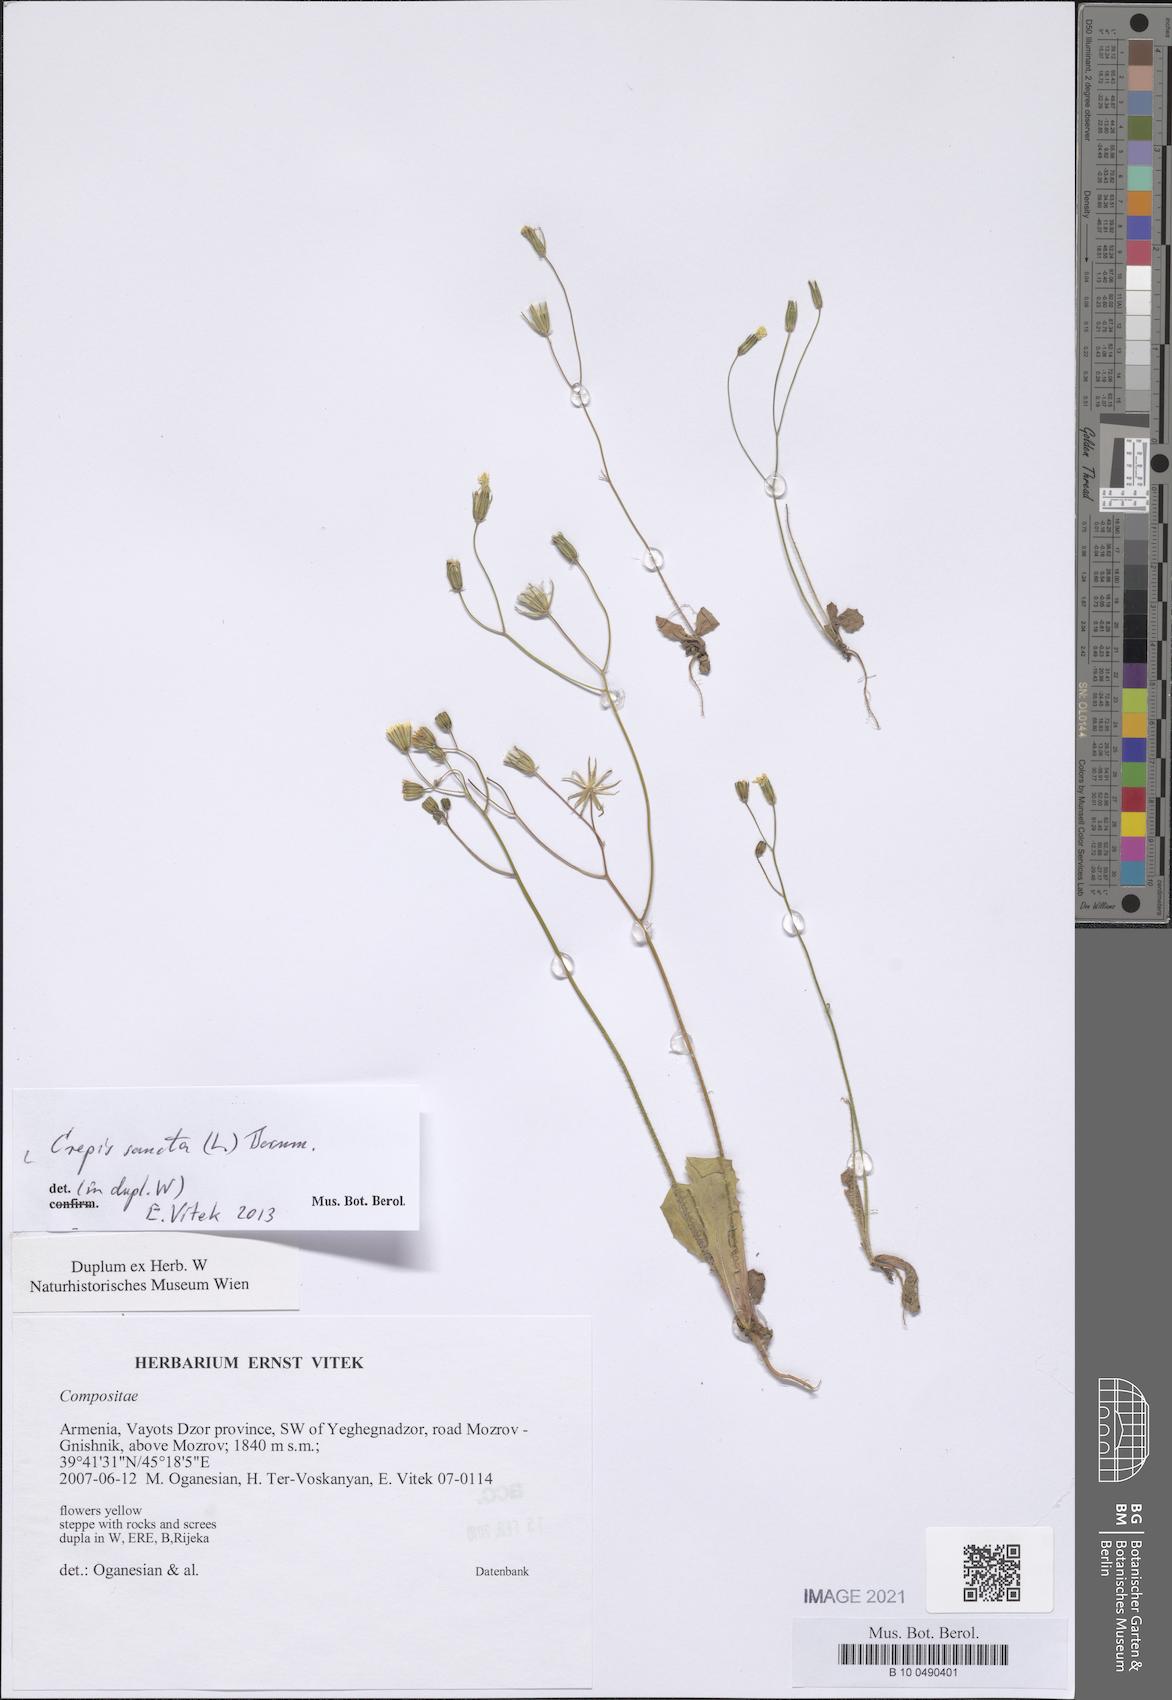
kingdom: Plantae
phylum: Tracheophyta
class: Magnoliopsida
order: Asterales
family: Asteraceae
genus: Crepis
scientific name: Crepis sancta
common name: Hawk's-beard
